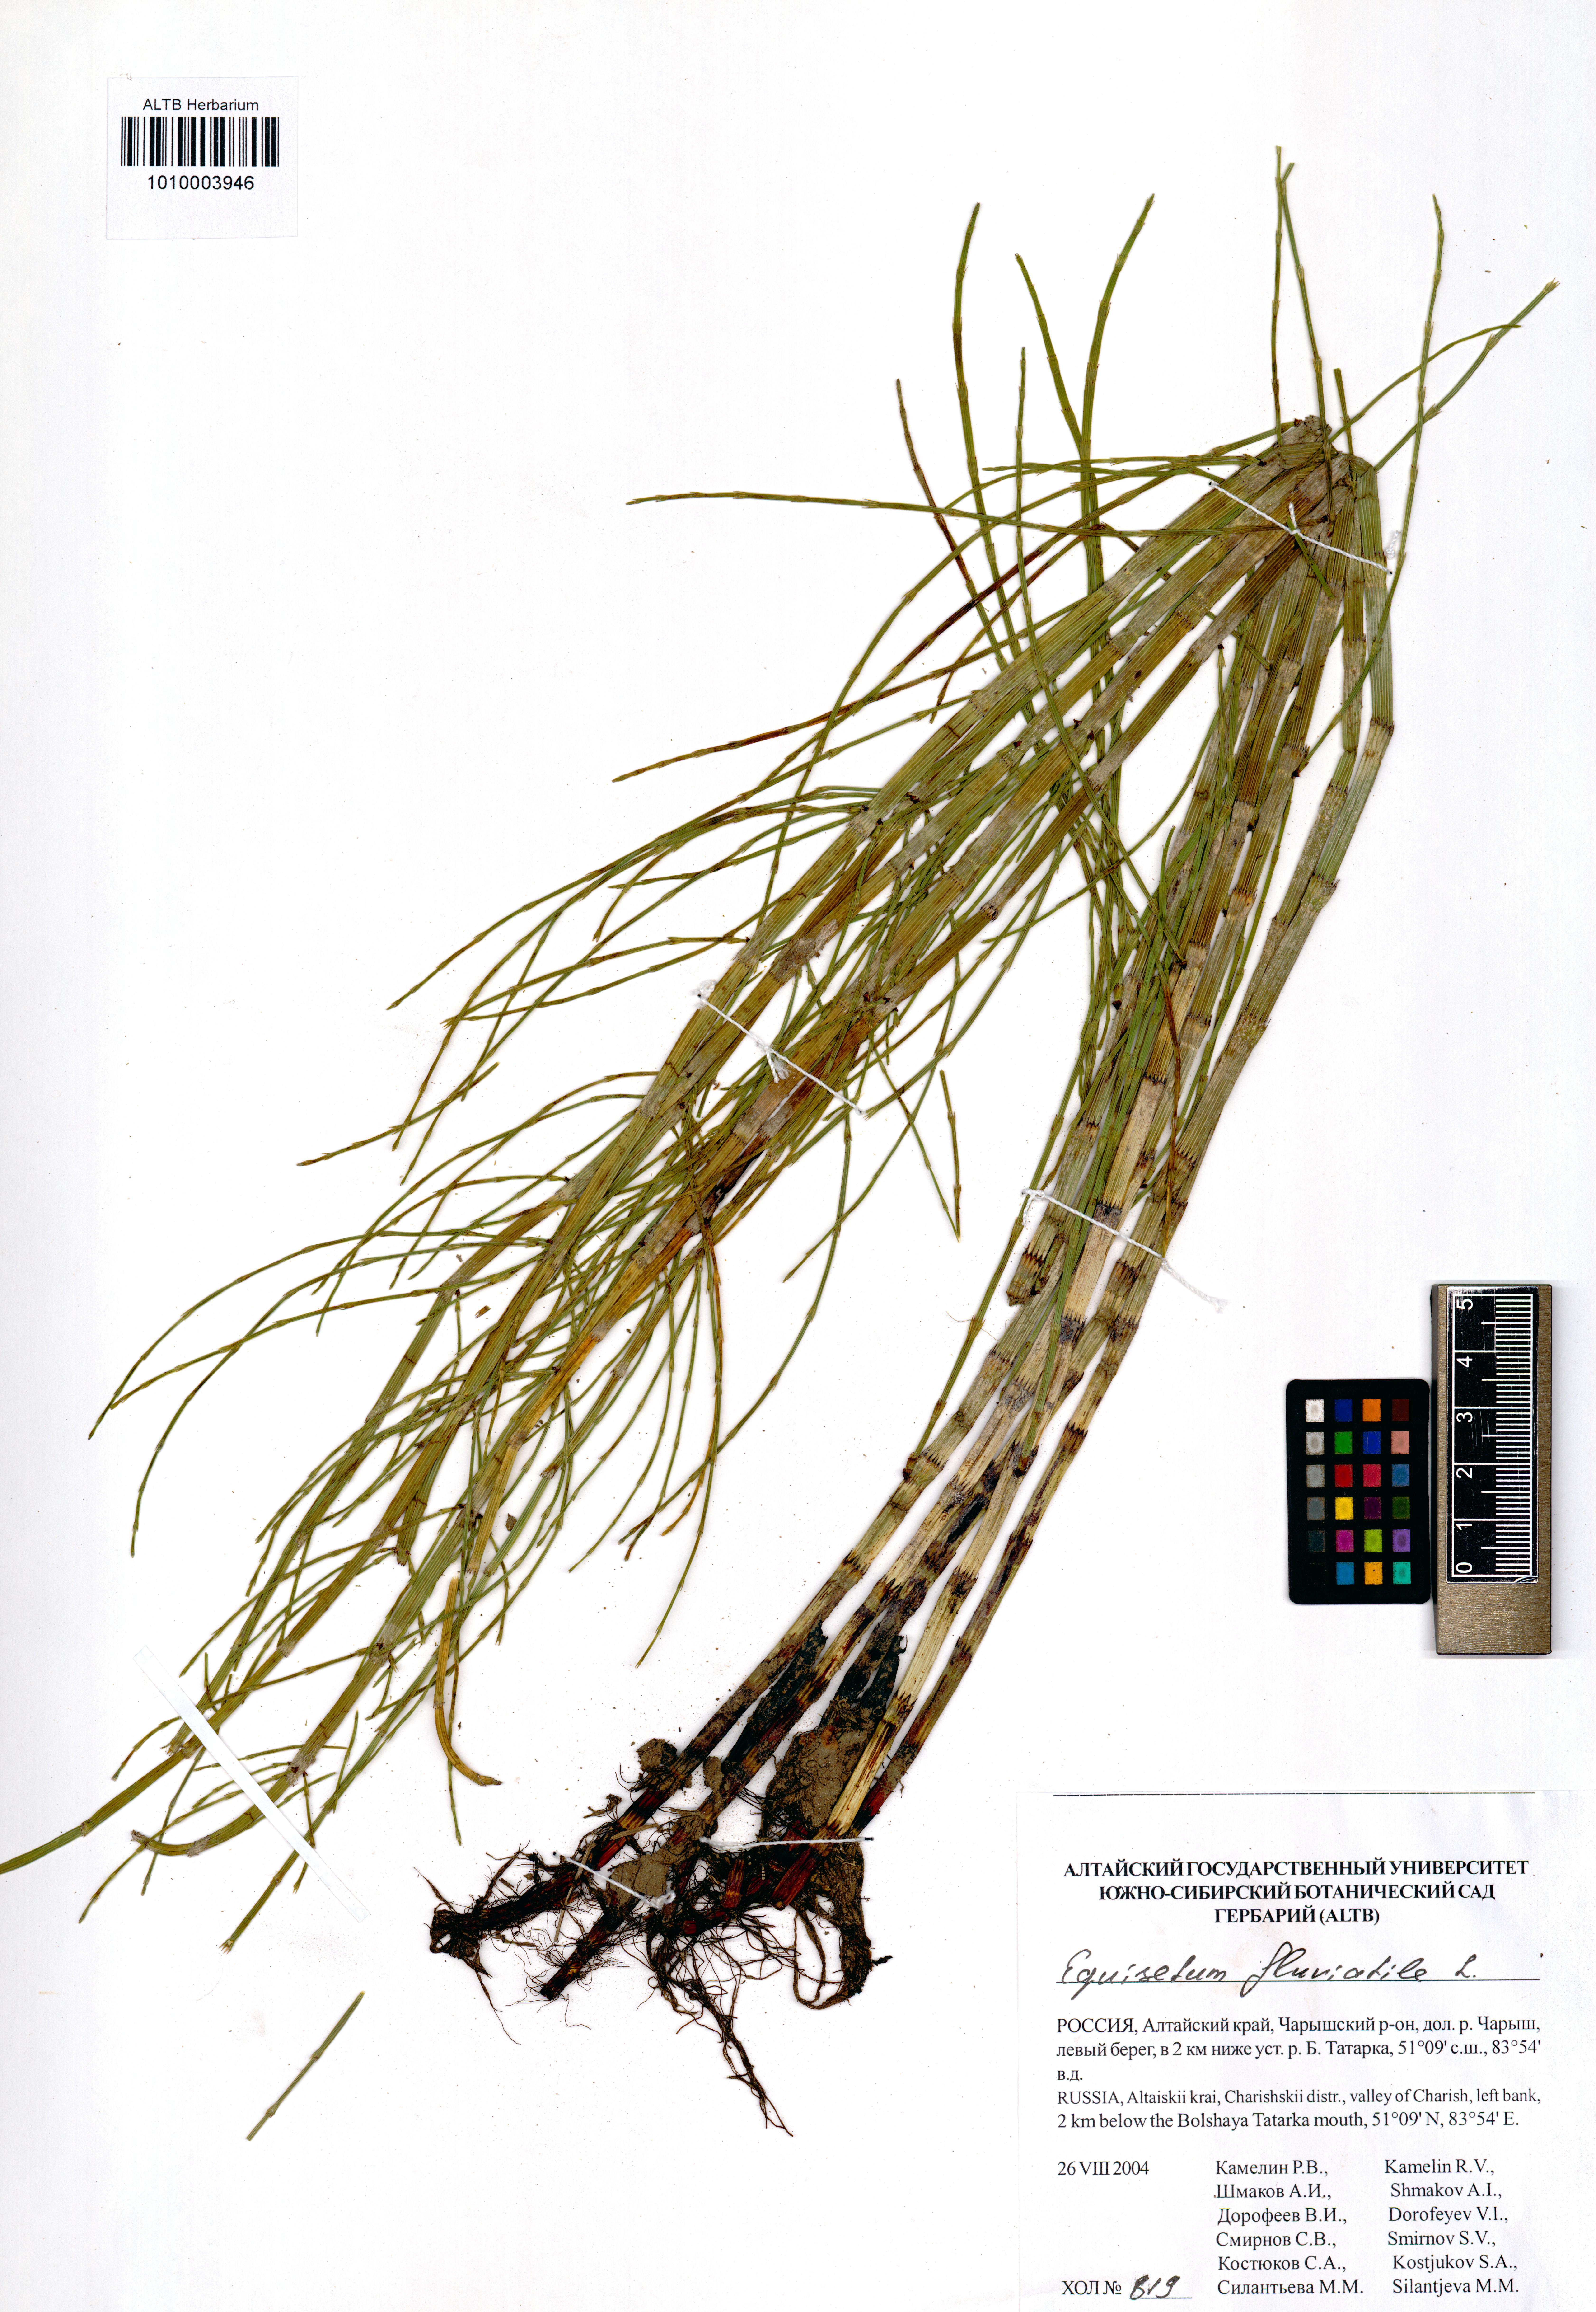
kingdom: Plantae
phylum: Tracheophyta
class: Polypodiopsida
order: Equisetales
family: Equisetaceae
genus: Equisetum
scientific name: Equisetum fluviatile
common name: Water horsetail
